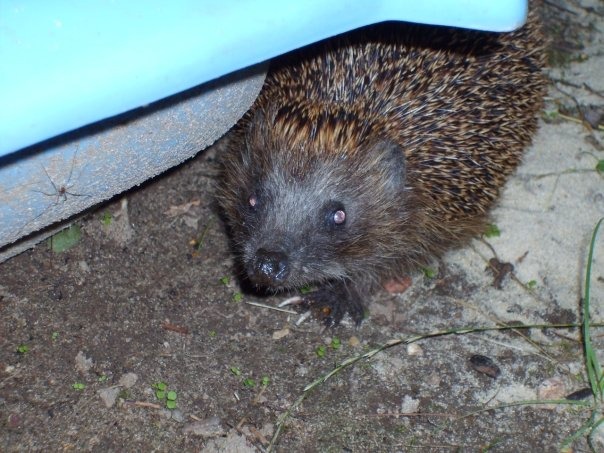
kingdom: Animalia
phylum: Chordata
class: Mammalia
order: Erinaceomorpha
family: Erinaceidae
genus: Erinaceus
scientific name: Erinaceus europaeus
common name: Pindsvin
